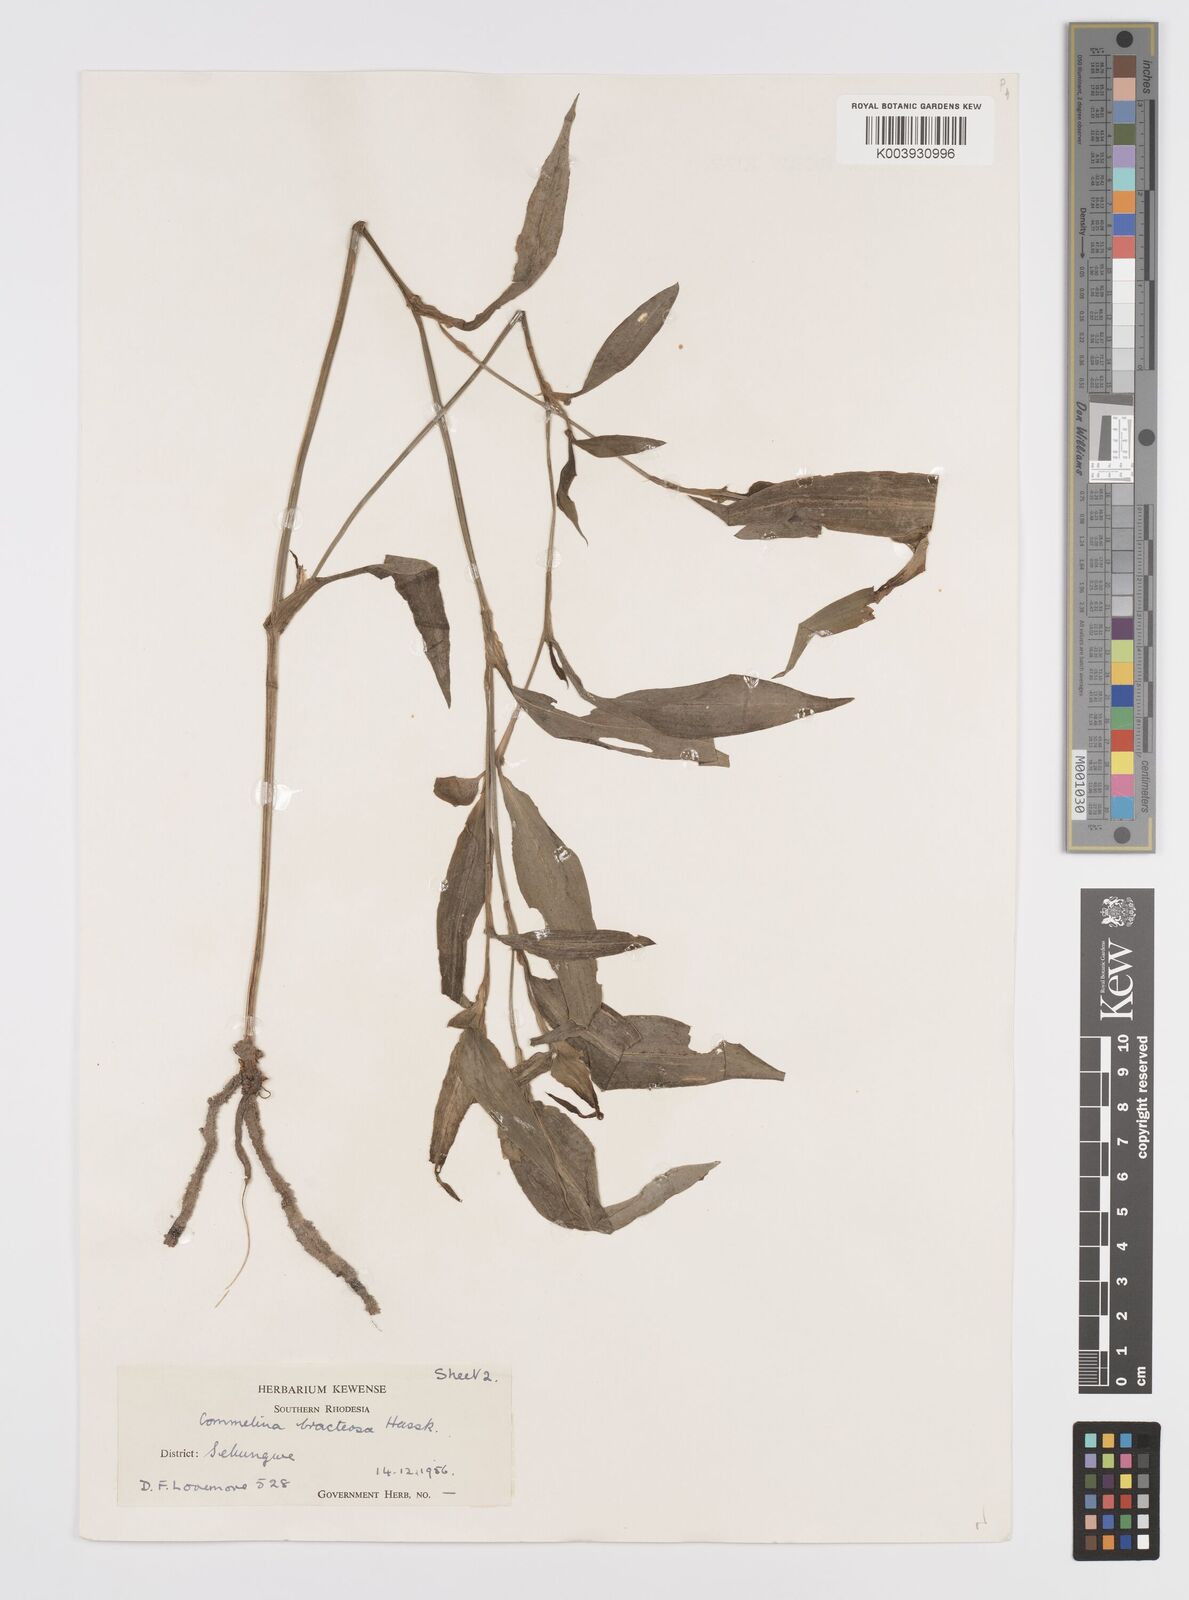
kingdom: Plantae
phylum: Tracheophyta
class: Liliopsida
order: Commelinales
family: Commelinaceae
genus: Commelina
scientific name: Commelina bracteosa
